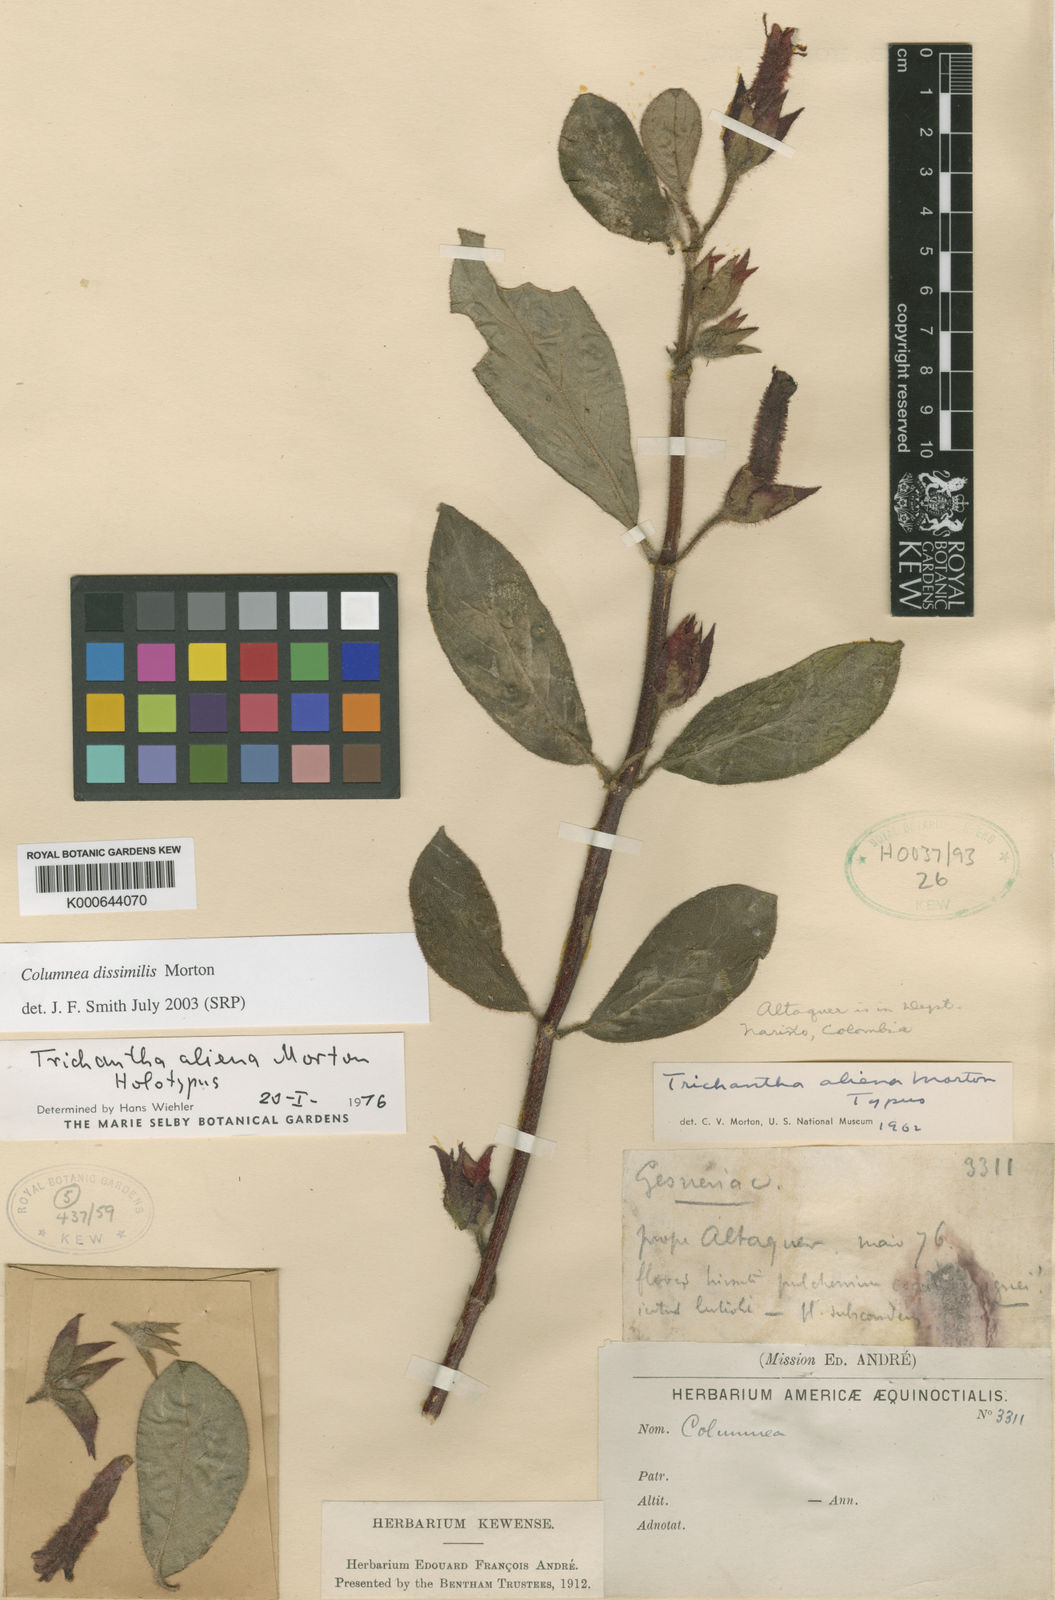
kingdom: Plantae
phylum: Tracheophyta
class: Magnoliopsida
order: Lamiales
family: Gesneriaceae
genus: Columnea
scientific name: Columnea dissimilis
